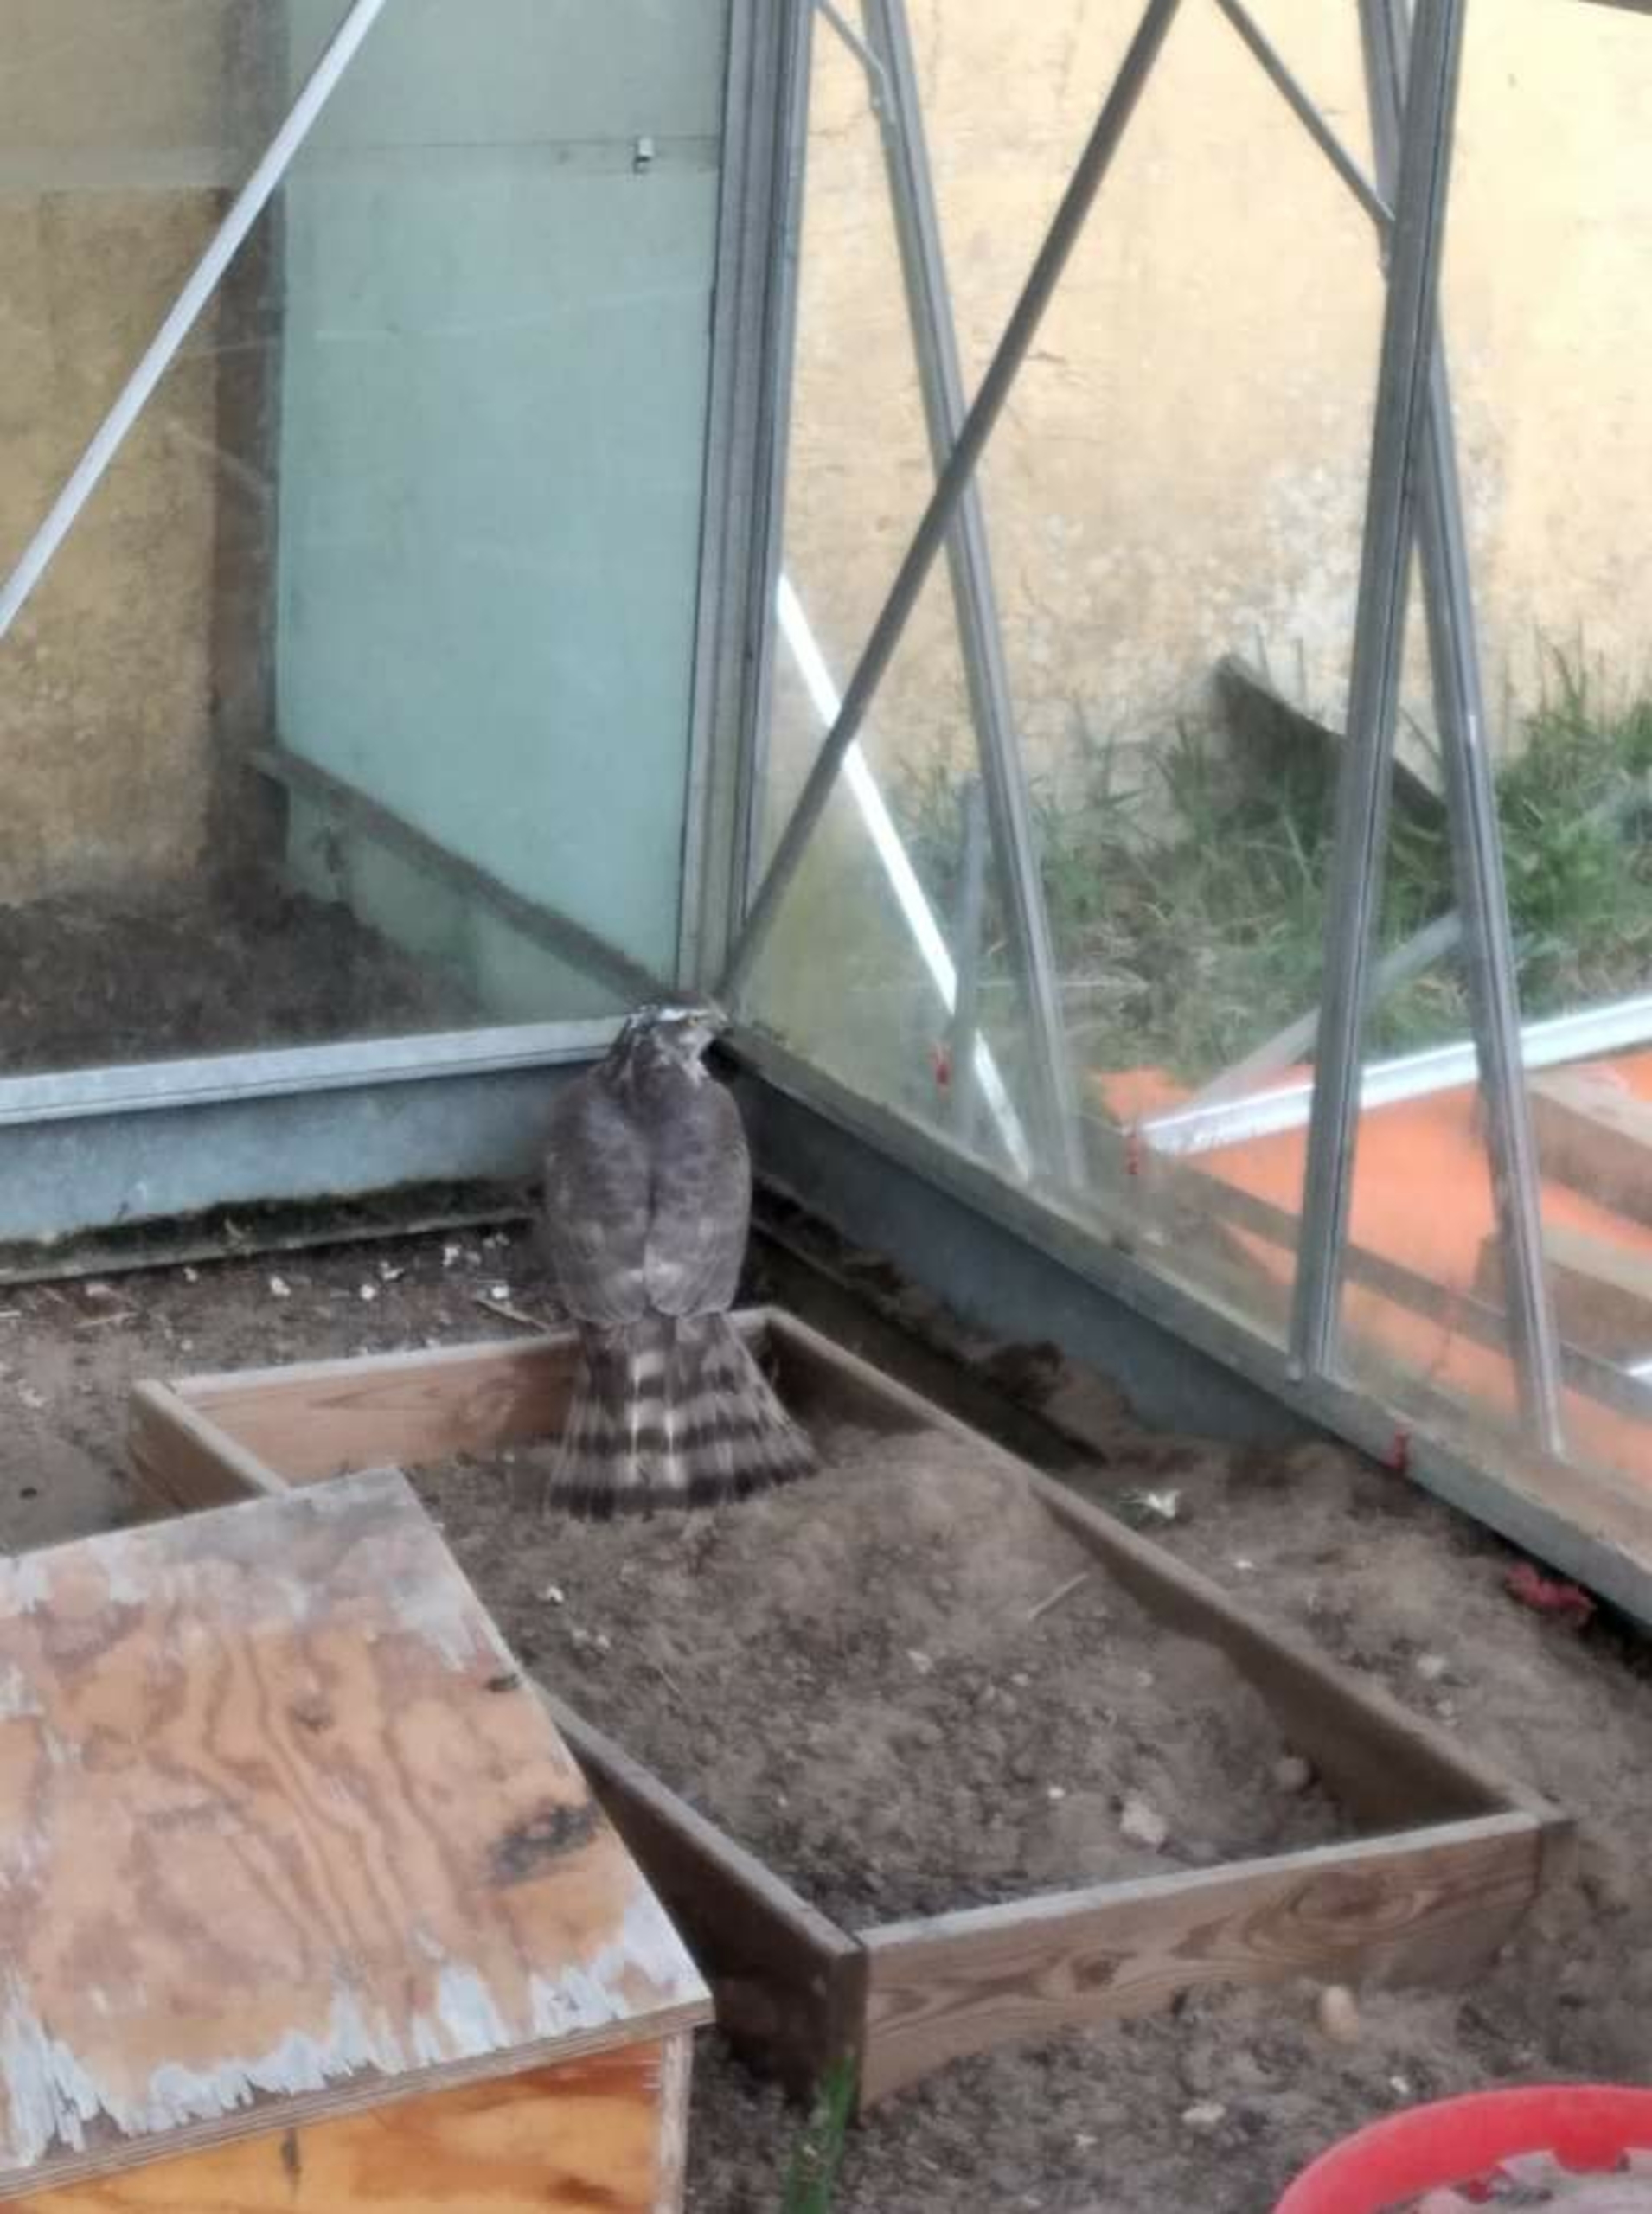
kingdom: Animalia
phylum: Chordata
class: Aves
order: Accipitriformes
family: Accipitridae
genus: Accipiter
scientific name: Accipiter nisus
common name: Spurvehøg
